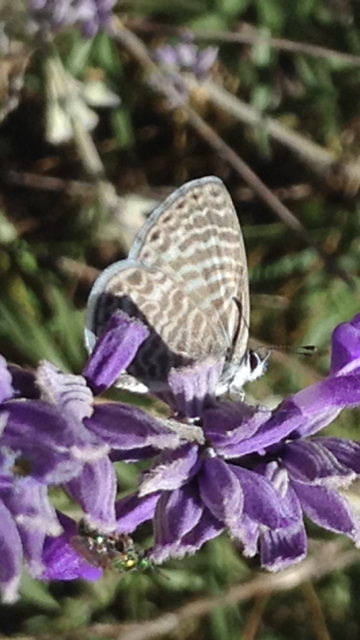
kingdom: Animalia
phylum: Arthropoda
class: Insecta
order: Lepidoptera
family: Lycaenidae
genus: Leptotes
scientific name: Leptotes marina
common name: Marine Blue
